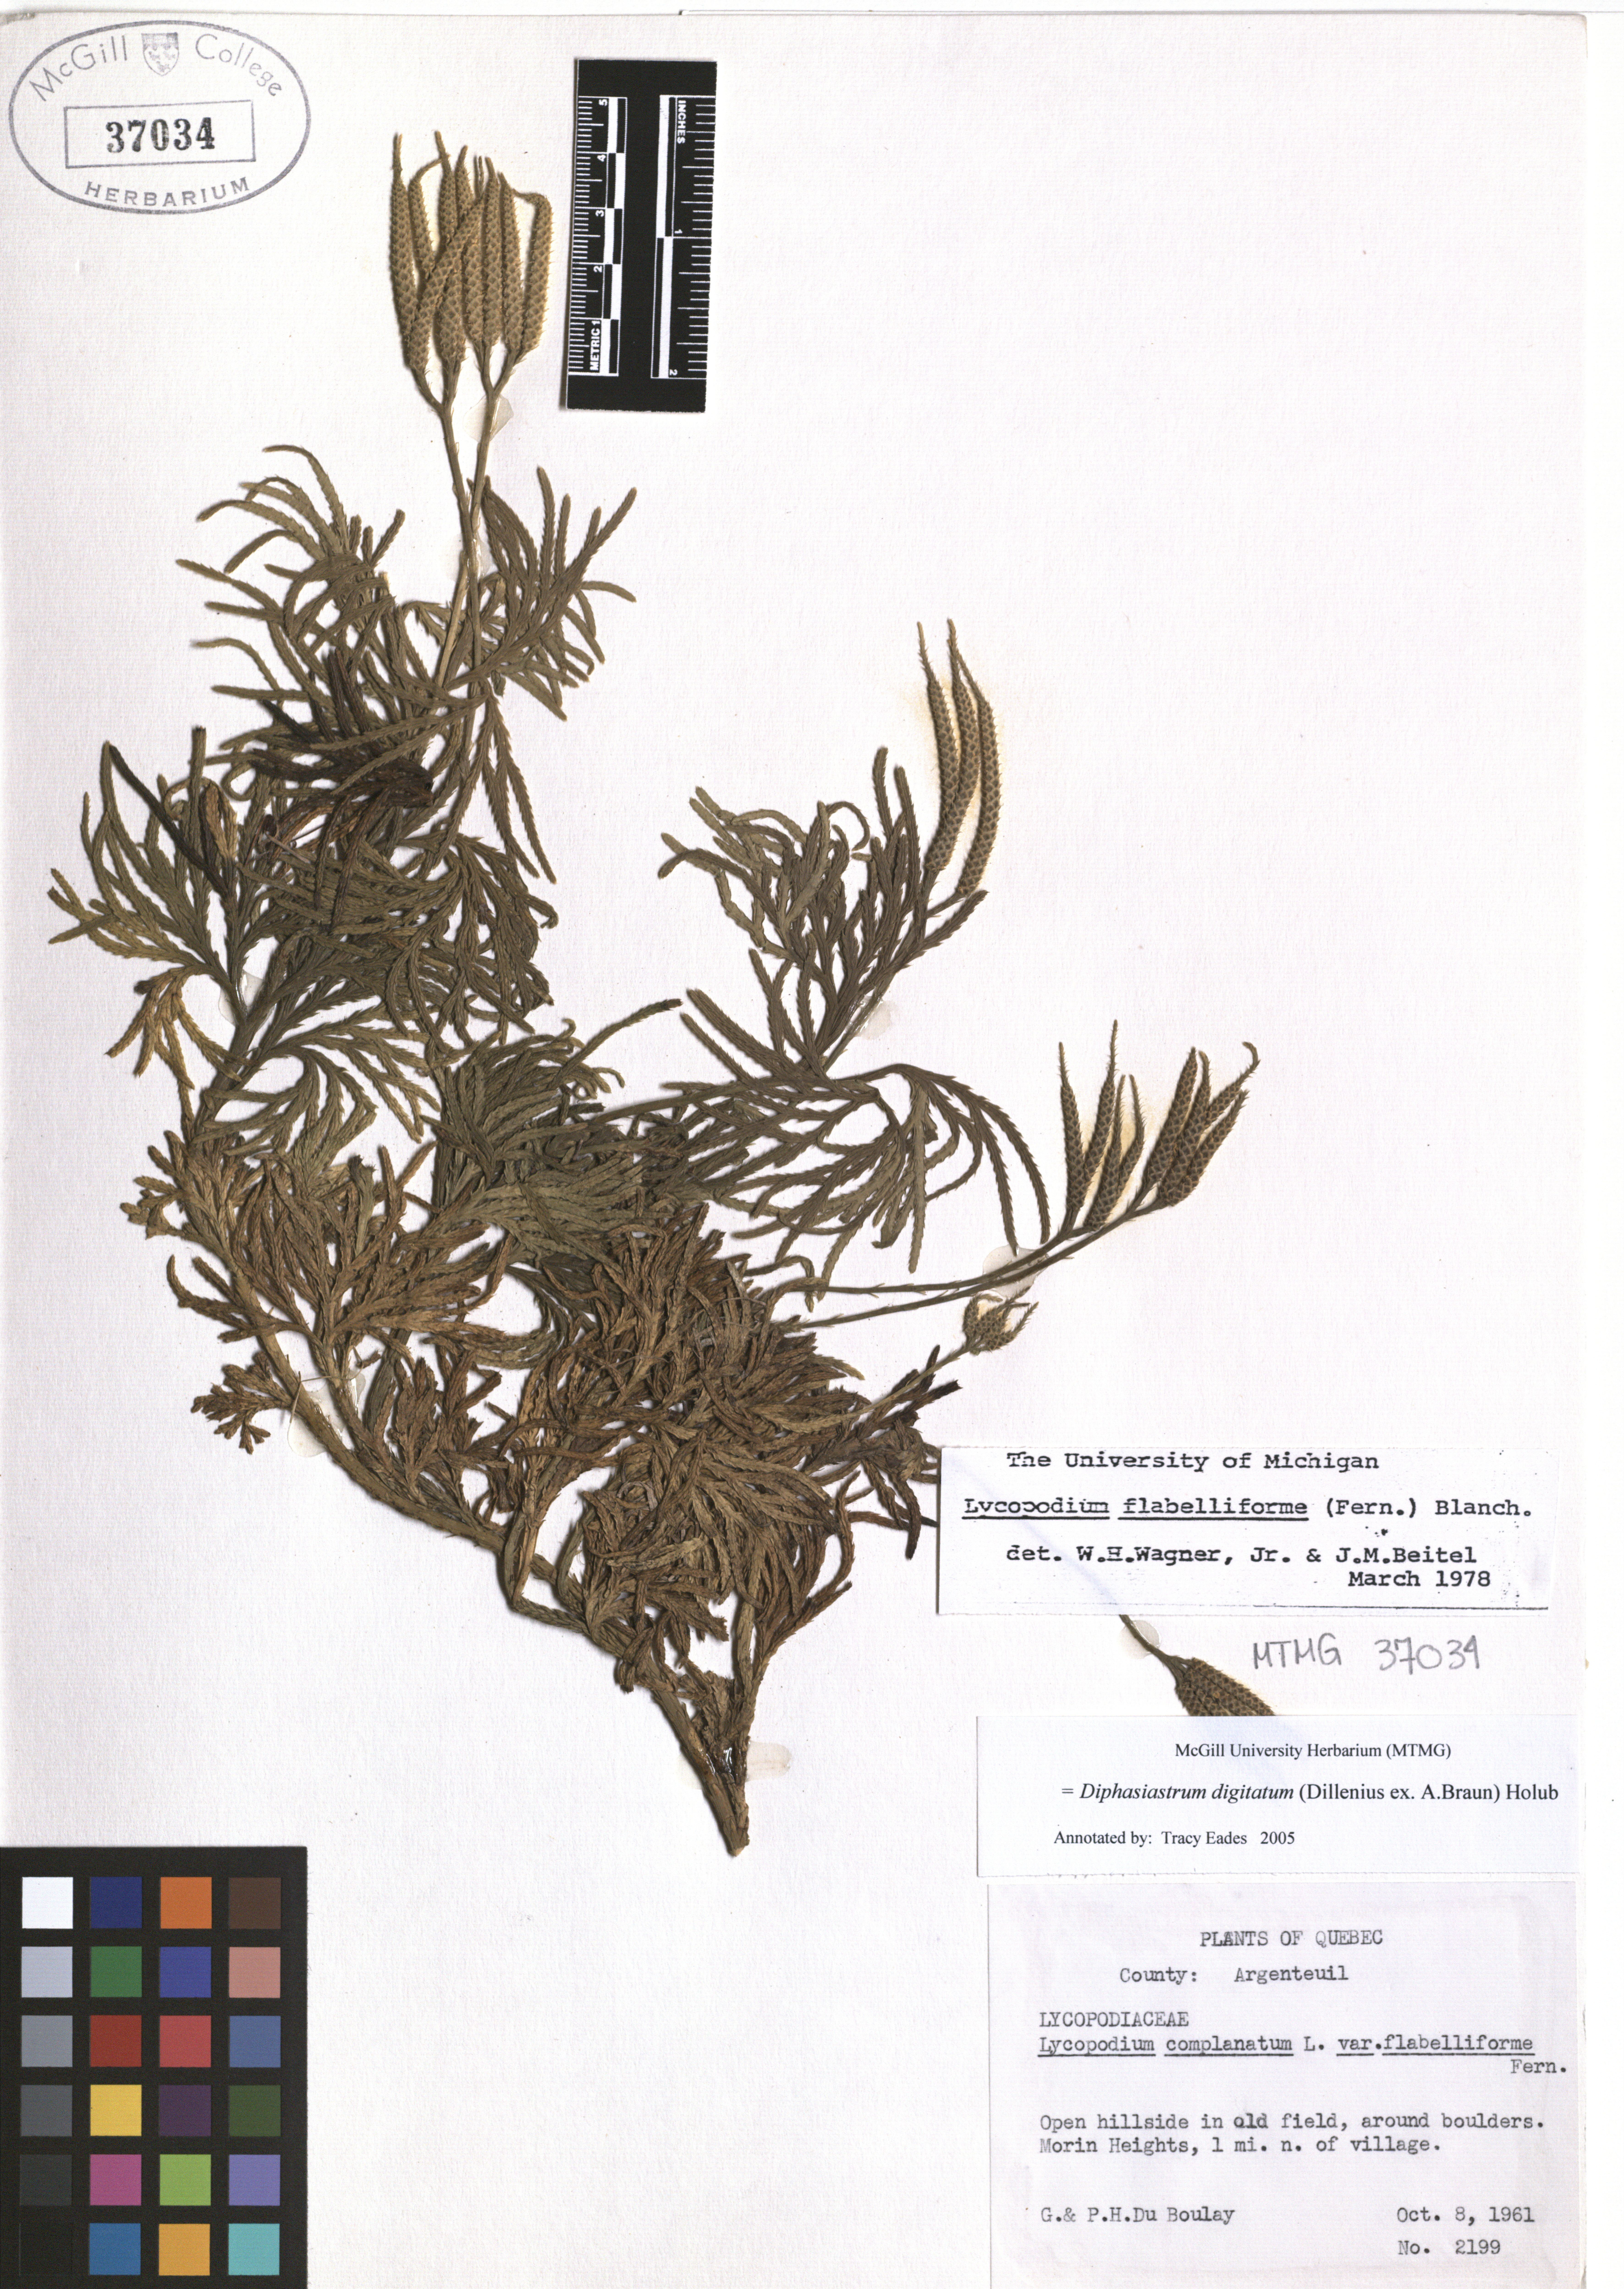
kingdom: Plantae
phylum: Tracheophyta
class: Lycopodiopsida
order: Lycopodiales
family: Lycopodiaceae
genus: Diphasiastrum
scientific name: Diphasiastrum digitatum
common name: Southern running-pine
